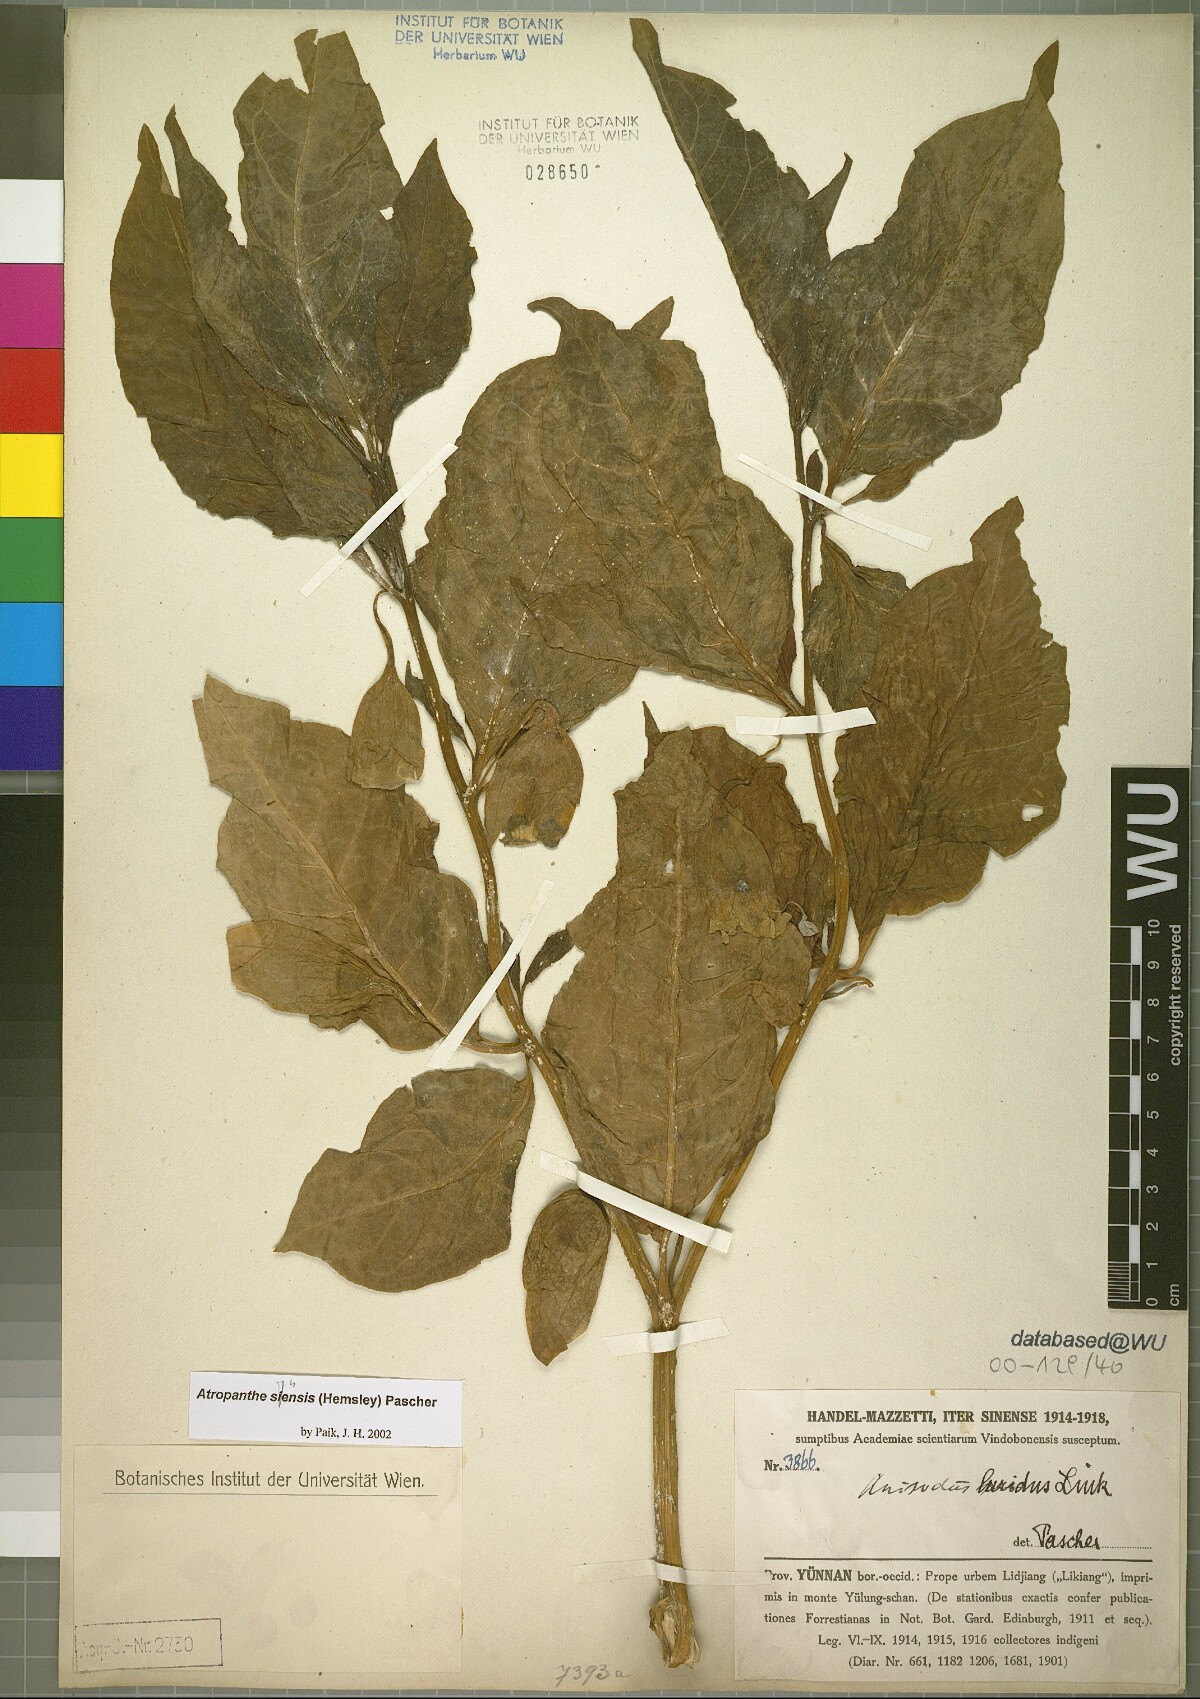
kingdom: Plantae
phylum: Tracheophyta
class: Magnoliopsida
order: Solanales
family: Solanaceae
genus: Atropanthe
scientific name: Atropanthe sinensis
